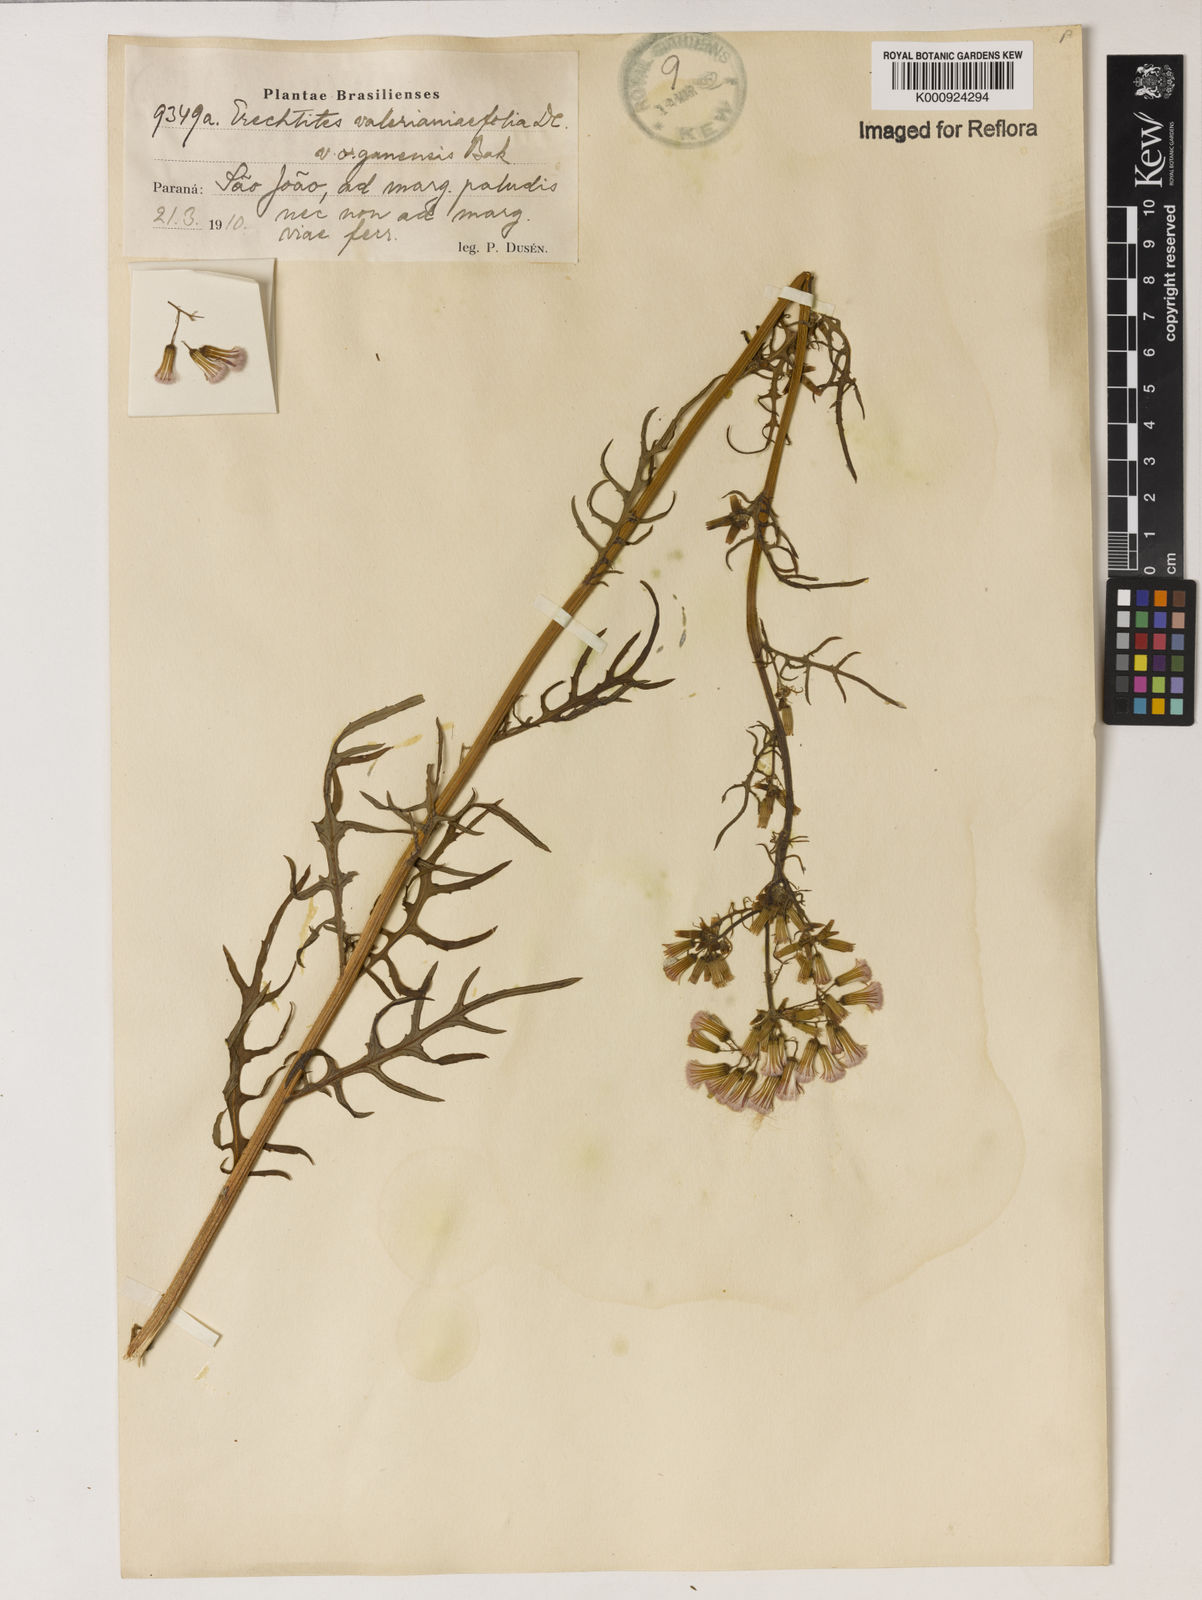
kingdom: Plantae
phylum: Tracheophyta
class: Magnoliopsida
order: Asterales
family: Asteraceae
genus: Erechtites
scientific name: Erechtites valerianifolius
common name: Tropical burnweed
